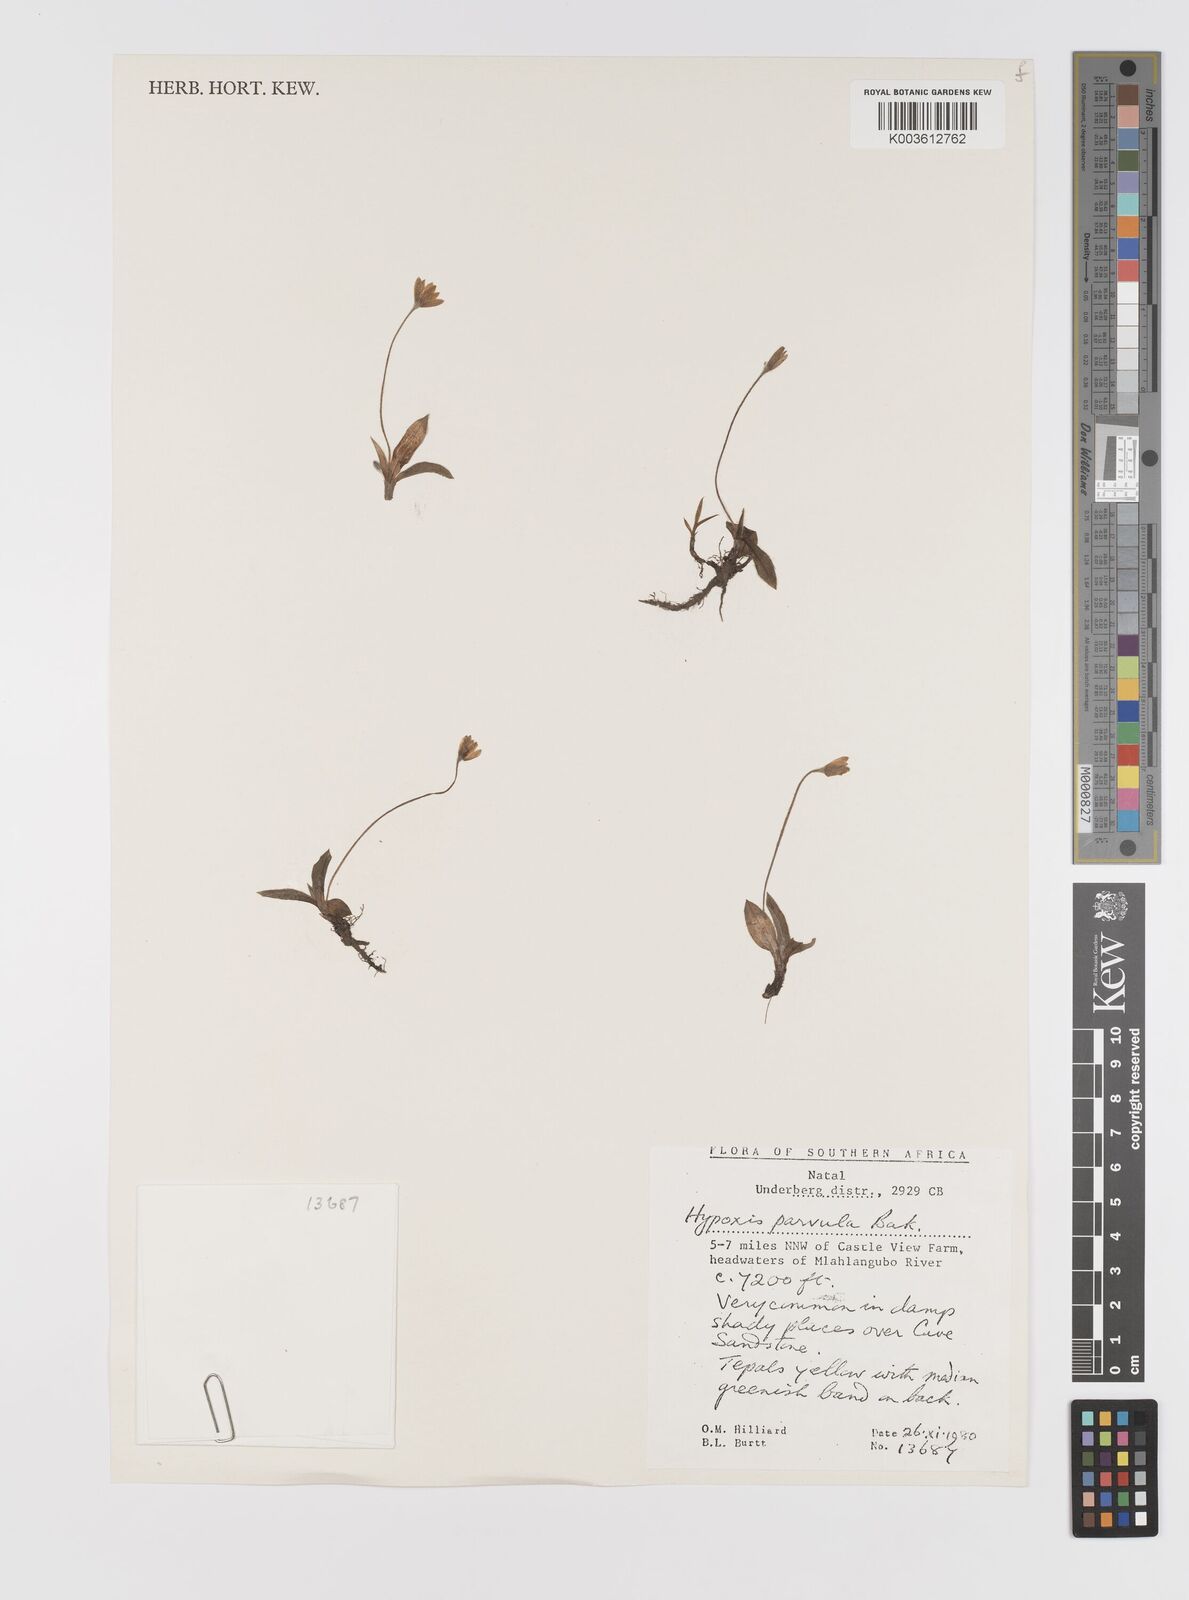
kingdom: Plantae
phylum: Tracheophyta
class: Liliopsida
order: Asparagales
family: Hypoxidaceae
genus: Hypoxis
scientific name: Hypoxis parvula
